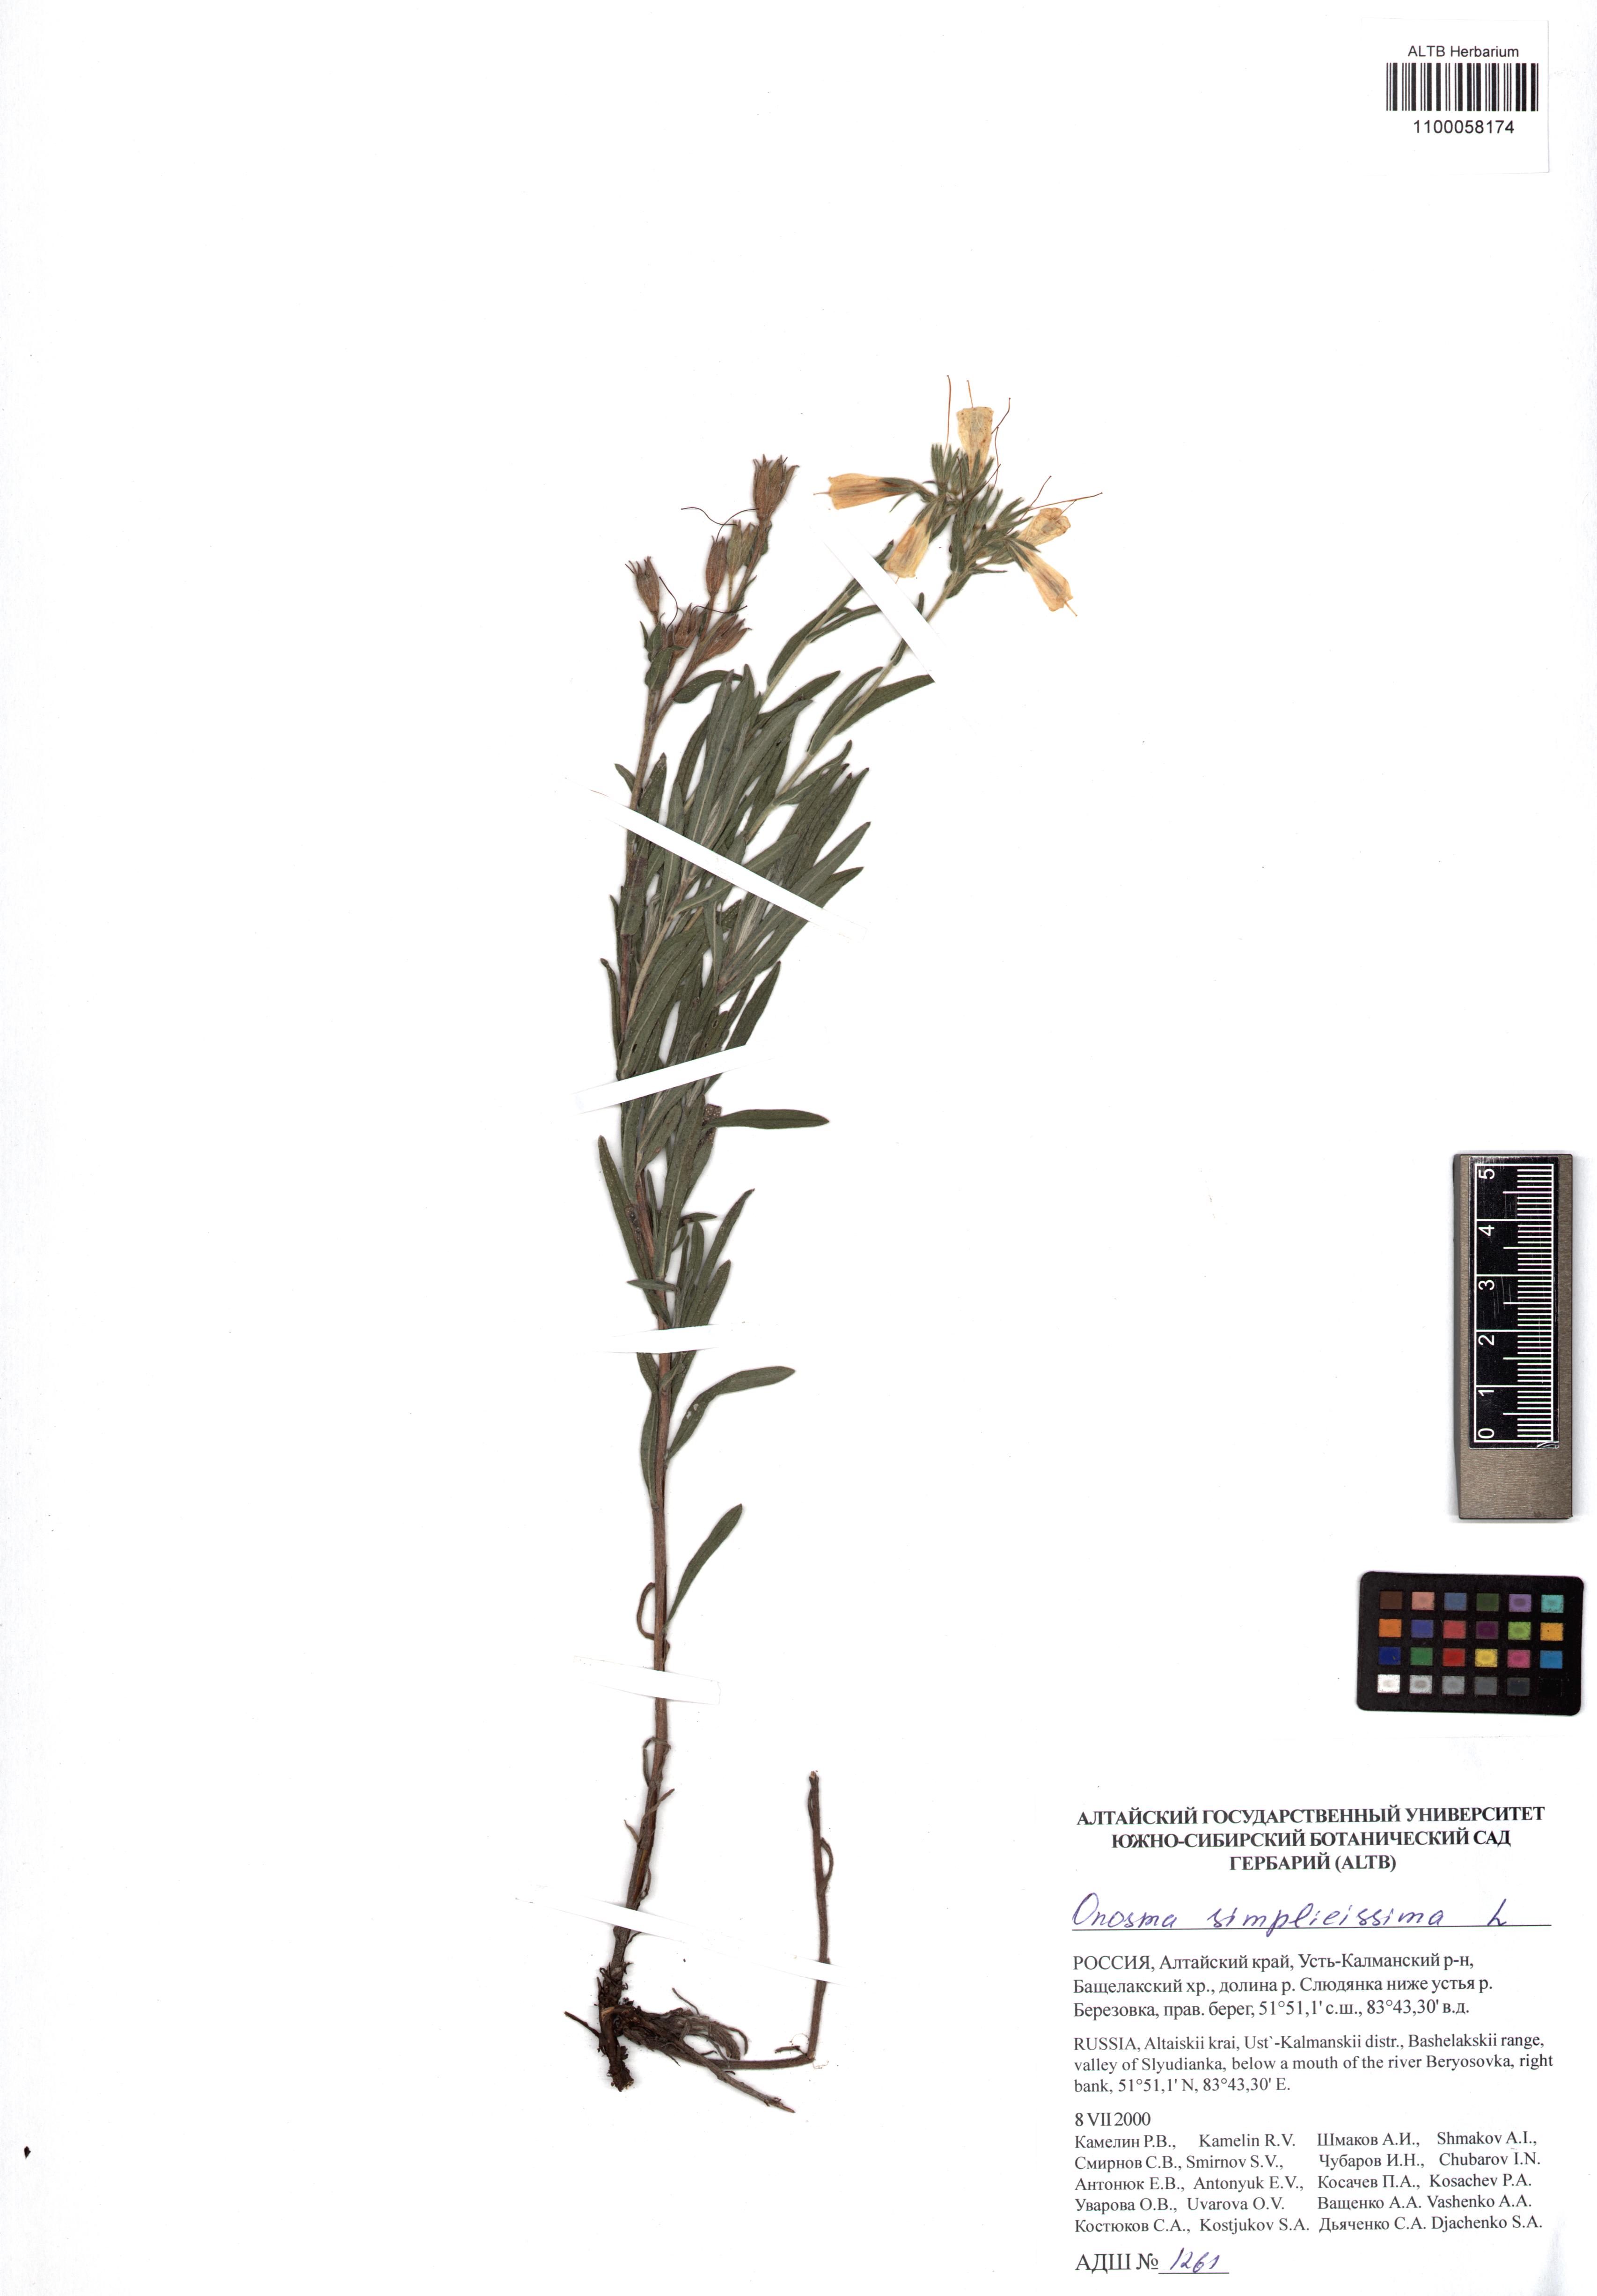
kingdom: Plantae
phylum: Tracheophyta
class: Magnoliopsida
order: Boraginales
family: Boraginaceae
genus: Onosma
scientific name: Onosma simplicissima
